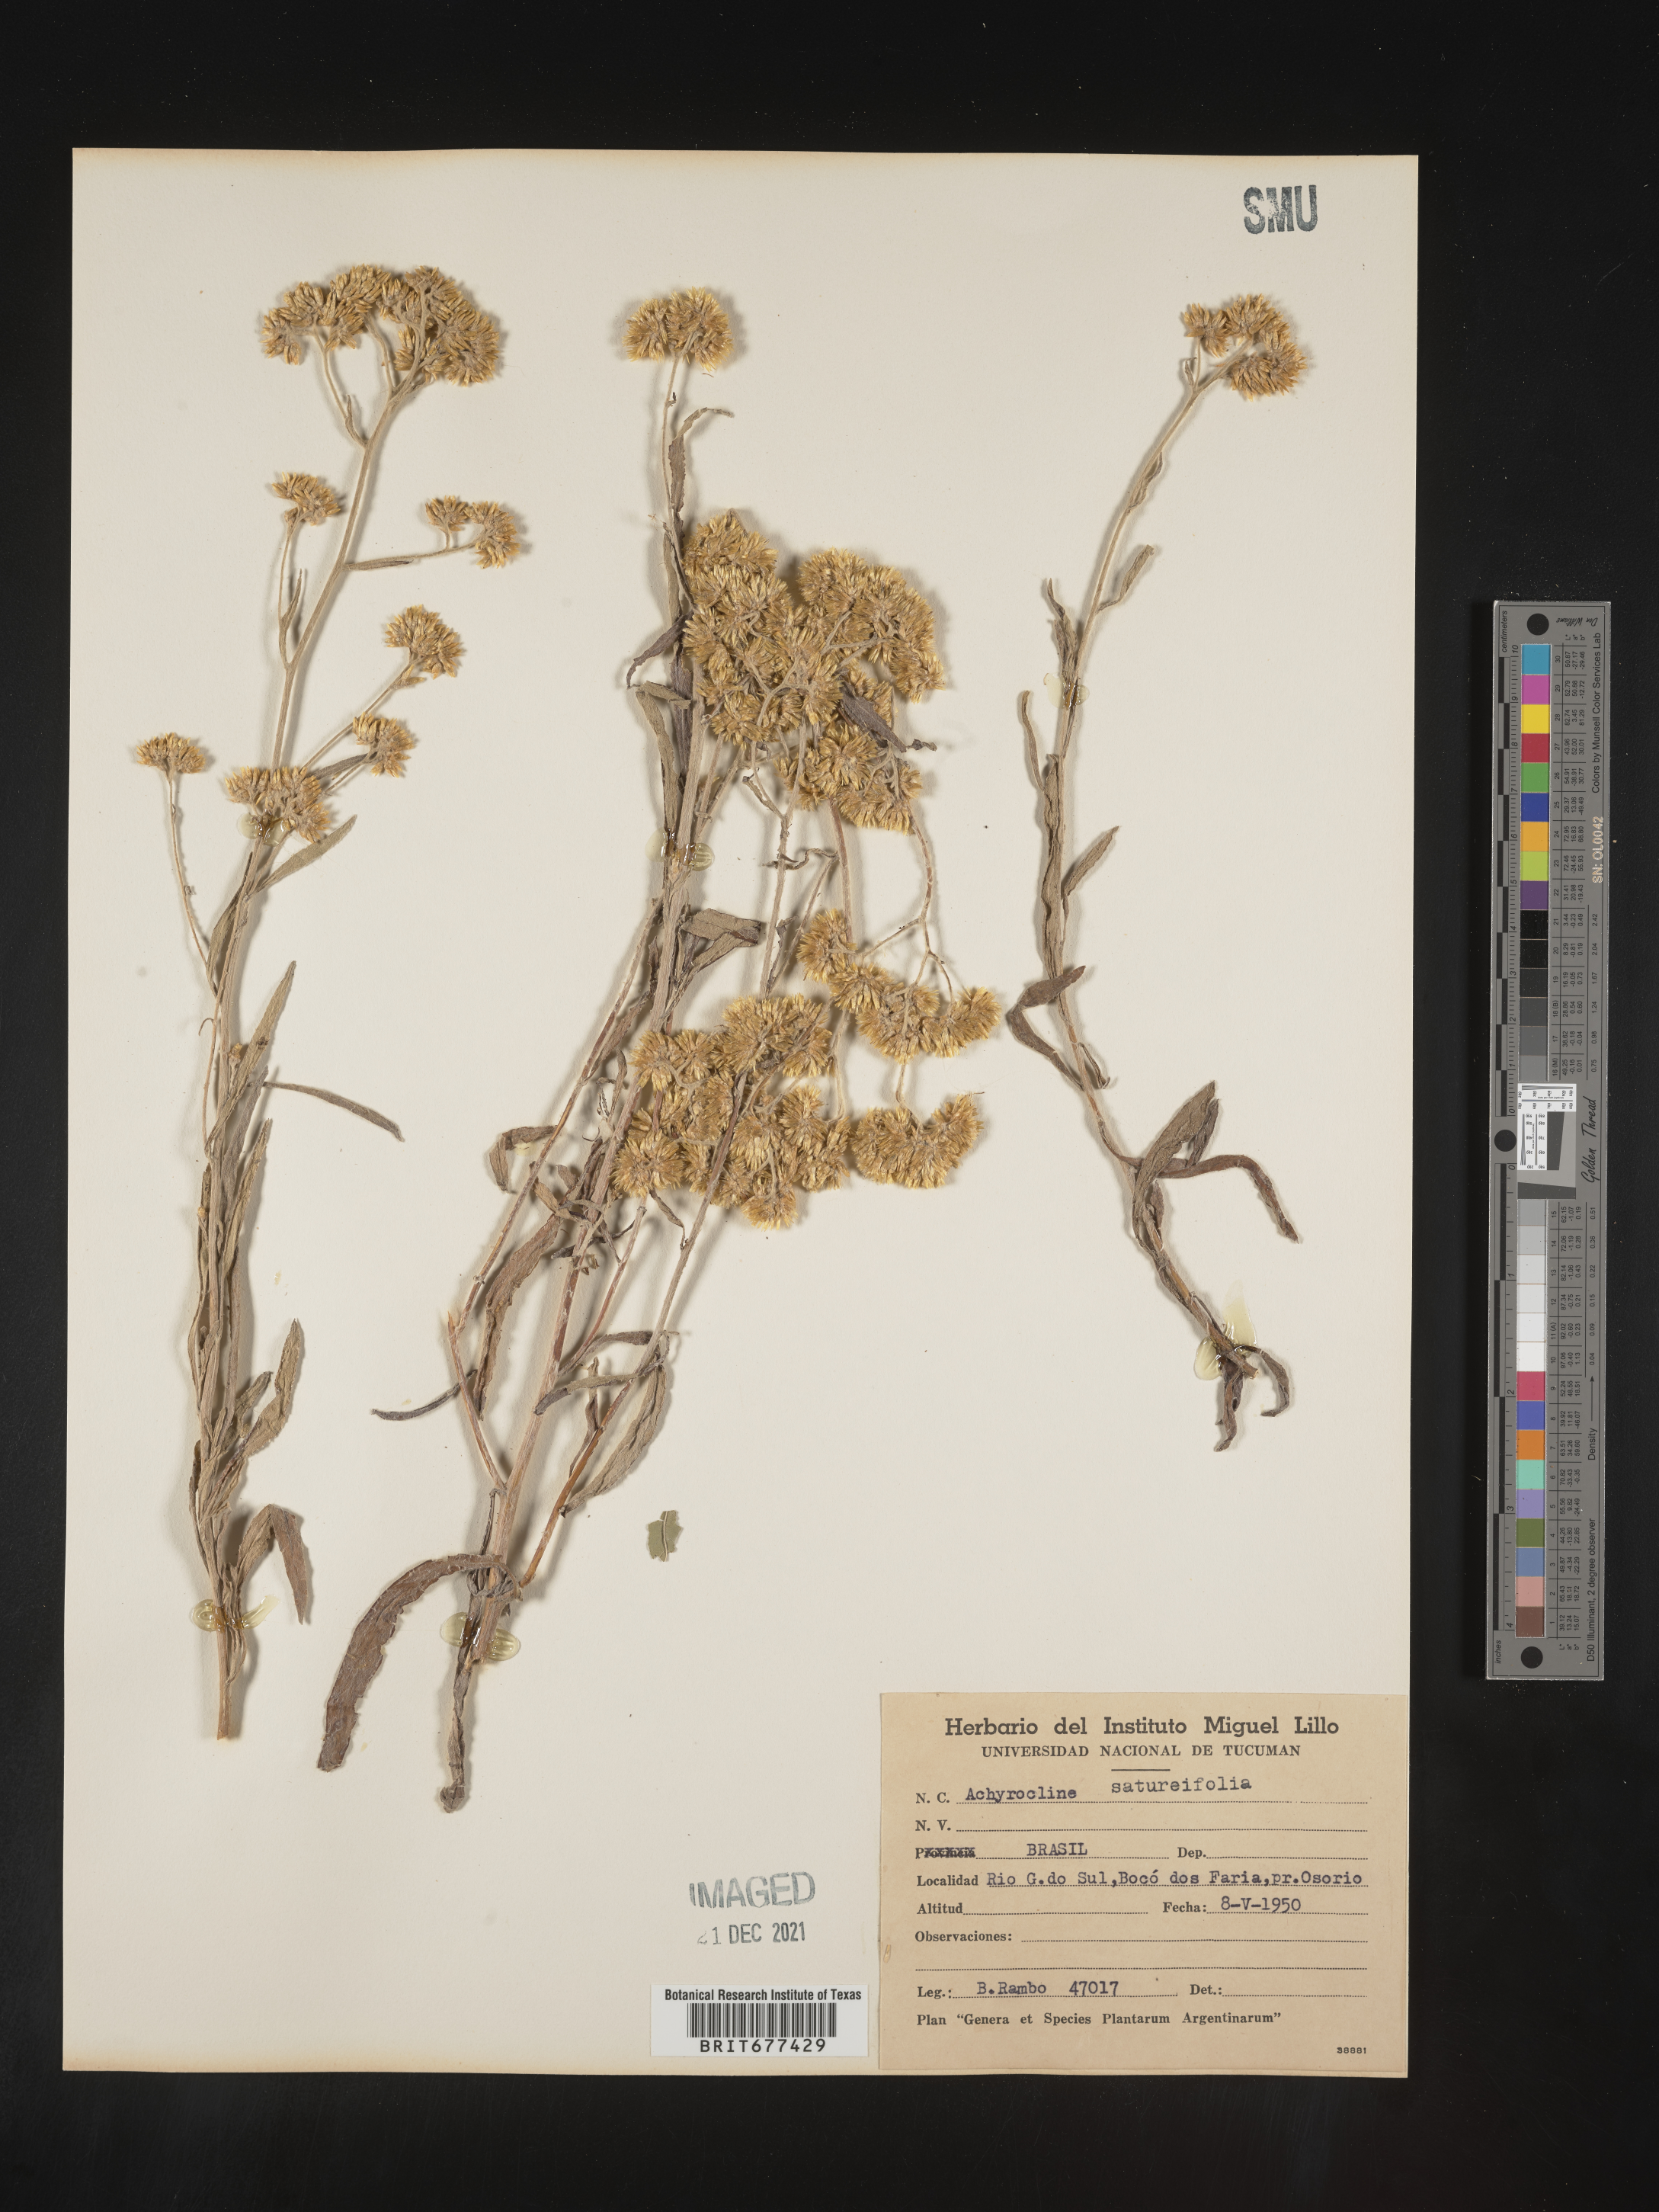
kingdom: Plantae
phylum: Tracheophyta
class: Magnoliopsida
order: Asterales
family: Asteraceae
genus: Achyrocline
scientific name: Achyrocline
